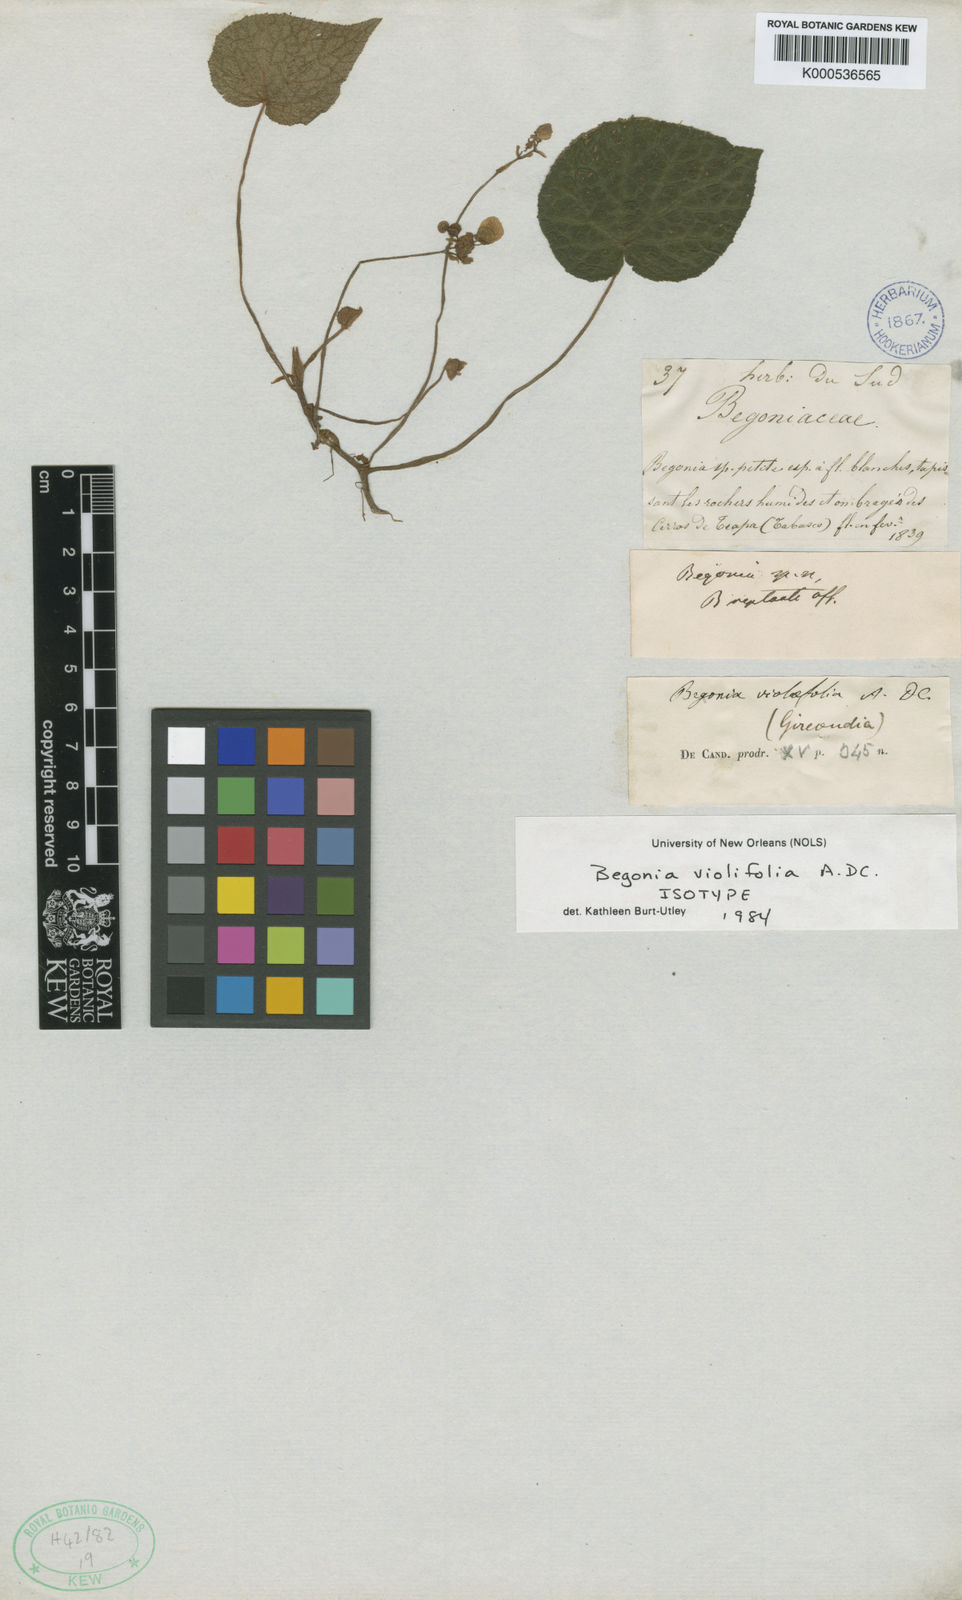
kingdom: Plantae
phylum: Tracheophyta
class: Magnoliopsida
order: Cucurbitales
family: Begoniaceae
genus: Begonia
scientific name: Begonia violifolia
